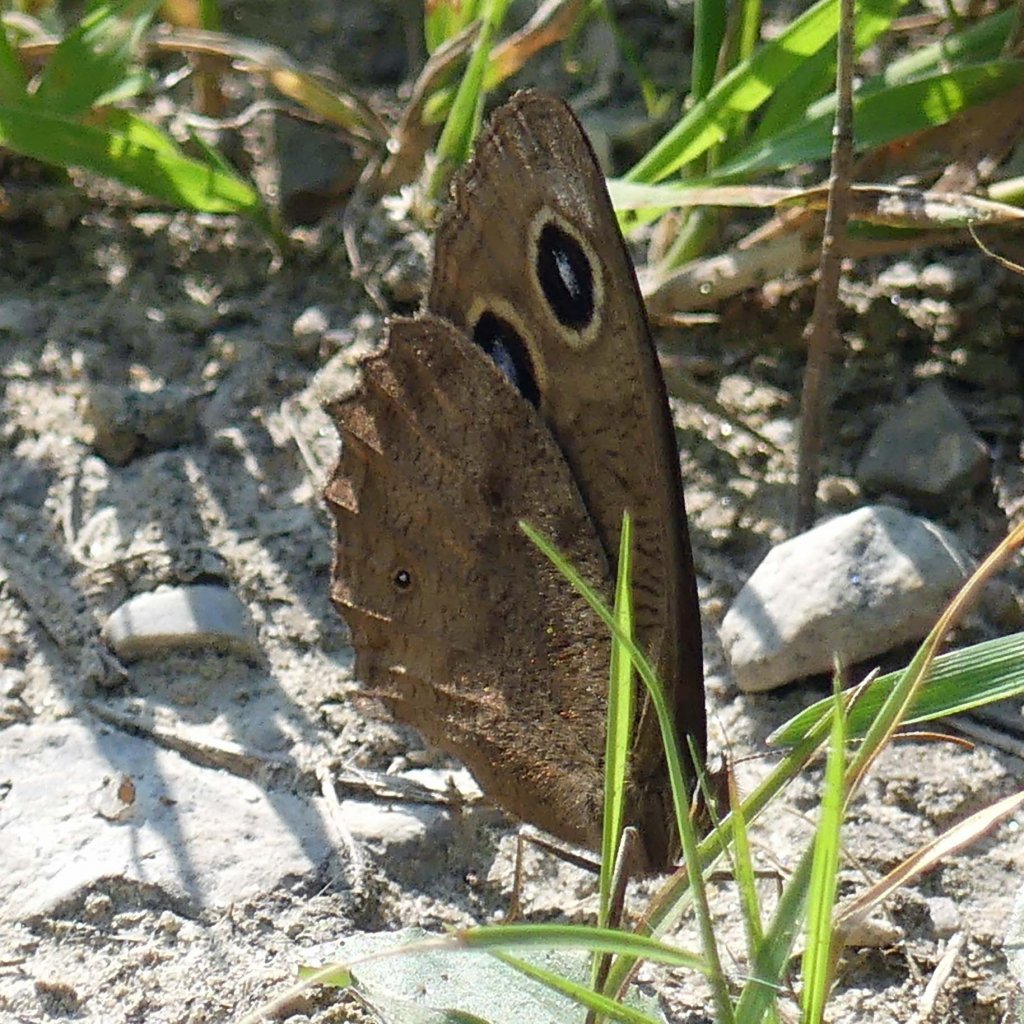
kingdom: Animalia
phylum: Arthropoda
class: Insecta
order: Lepidoptera
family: Nymphalidae
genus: Cercyonis
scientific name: Cercyonis pegala
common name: Common Wood-Nymph
